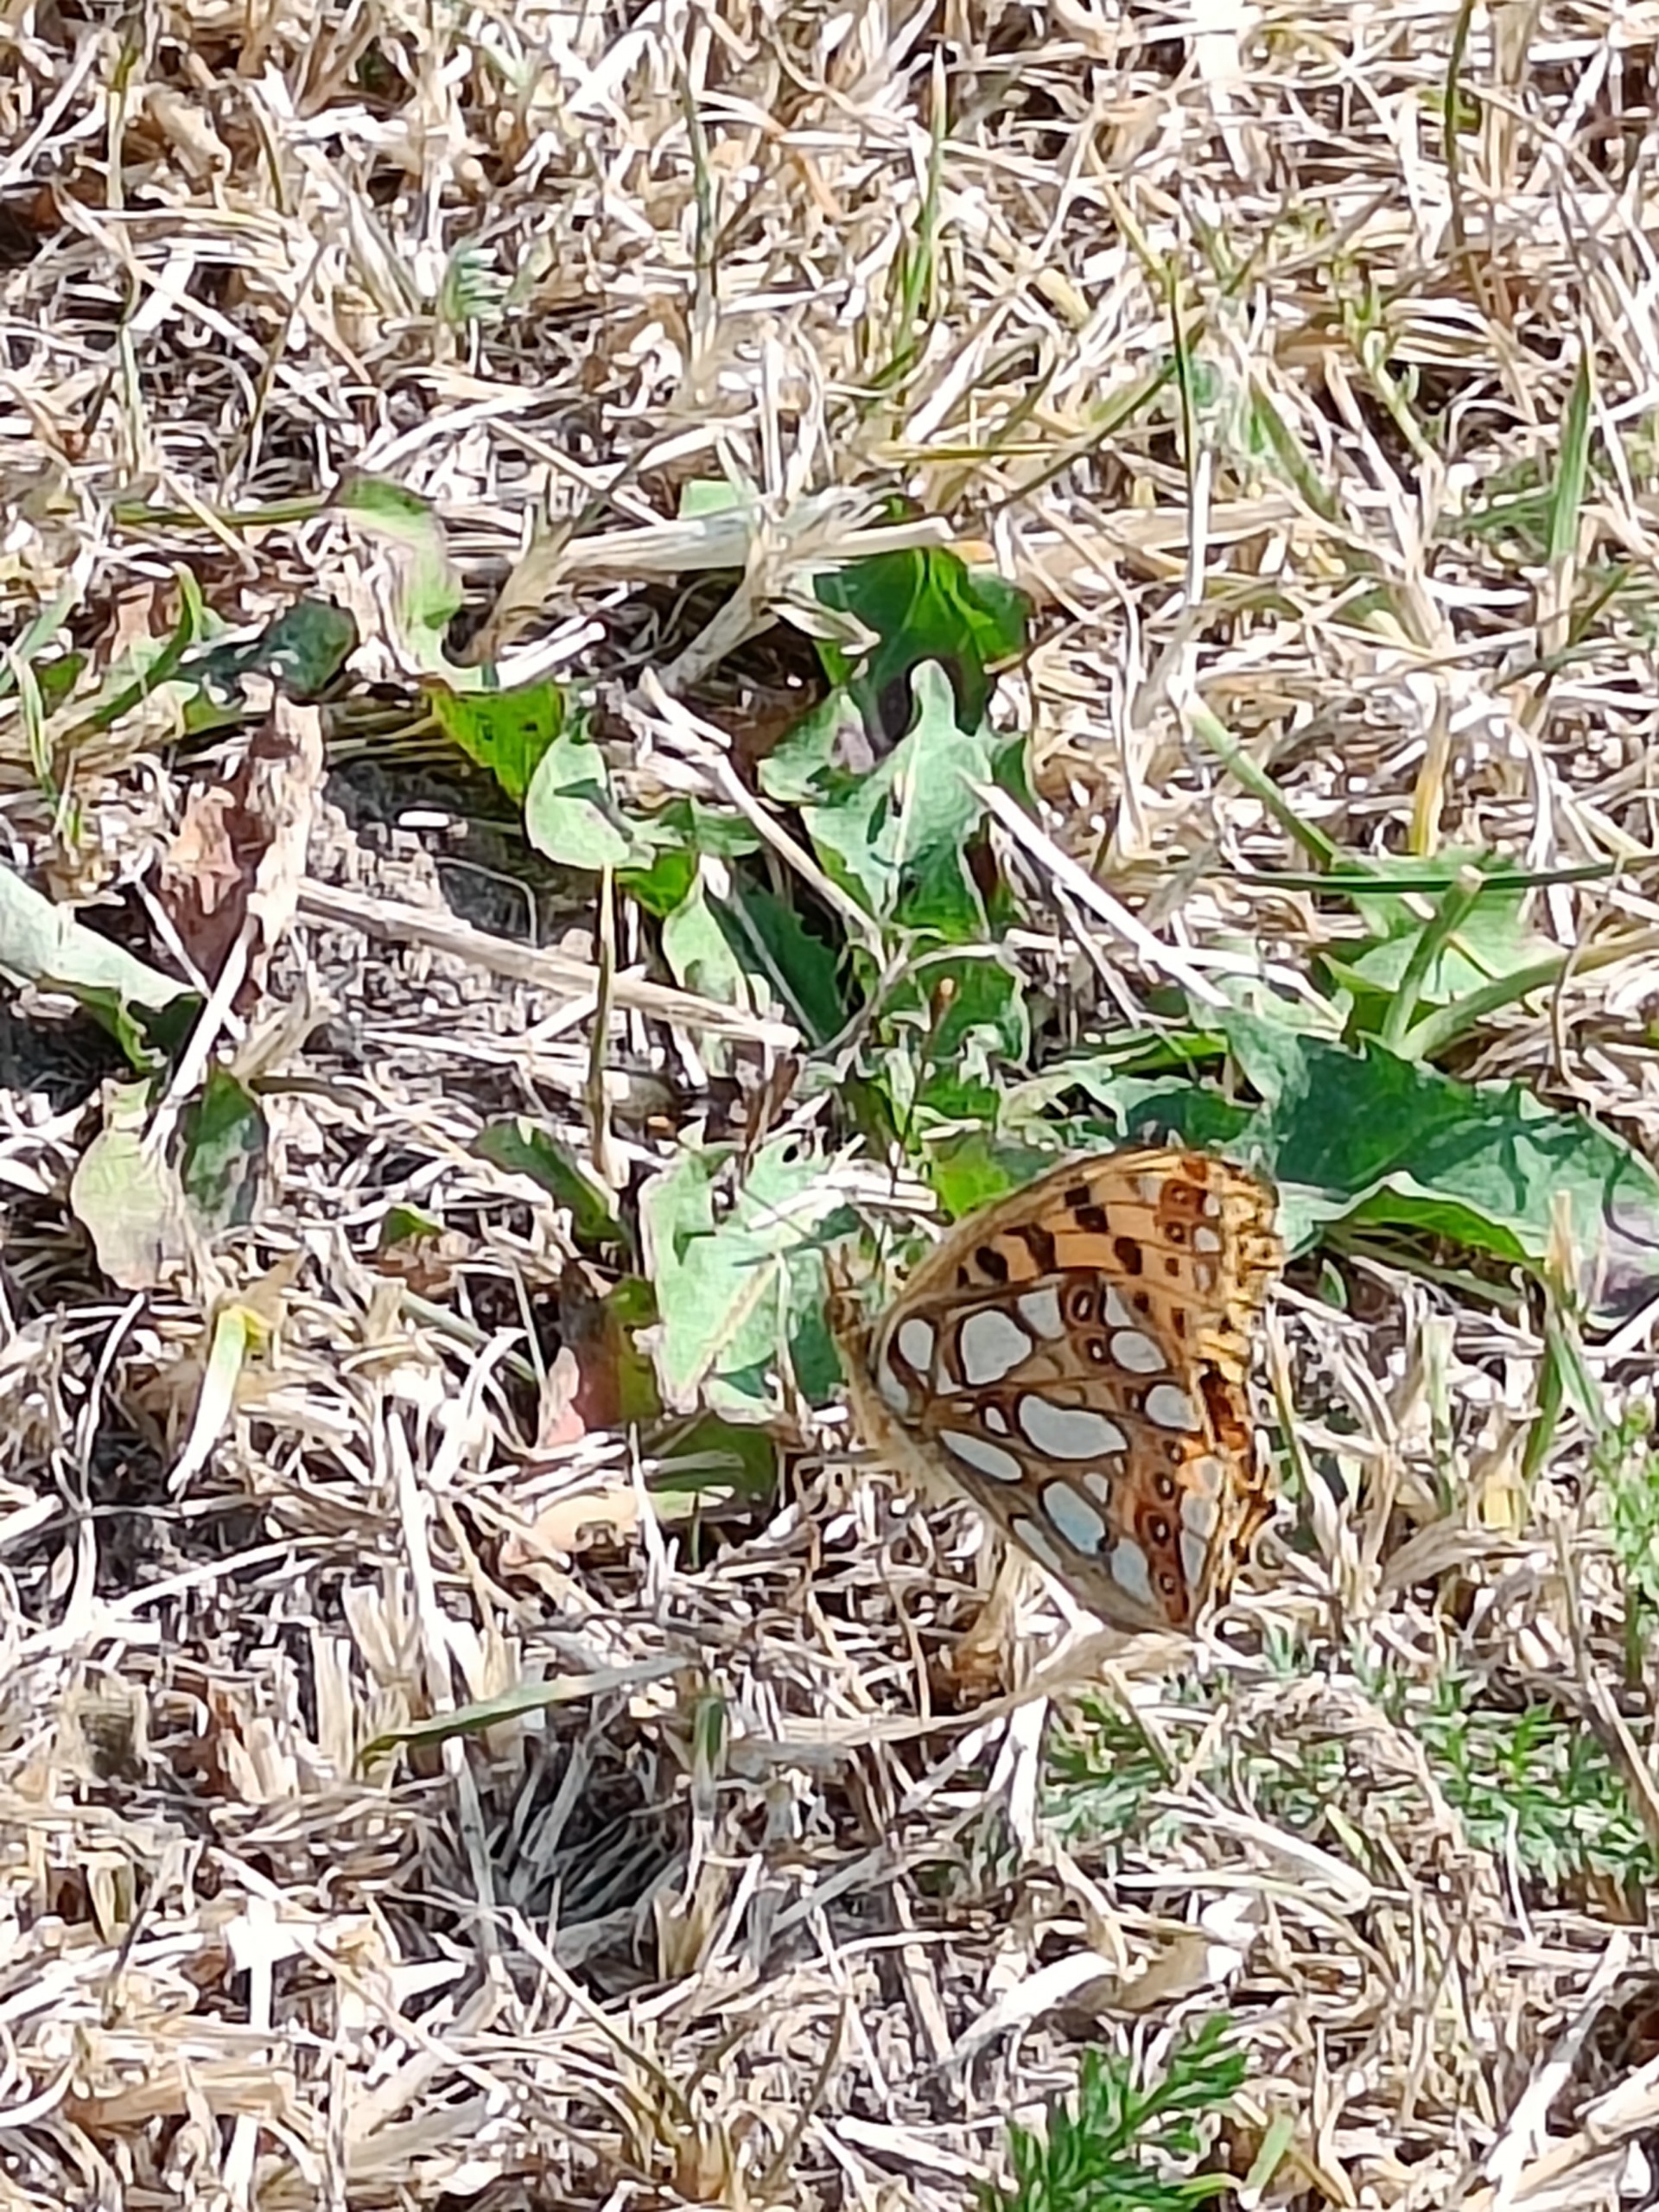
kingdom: Animalia
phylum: Arthropoda
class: Insecta
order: Lepidoptera
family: Nymphalidae
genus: Issoria
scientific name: Issoria lathonia
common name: Storplettet perlemorsommerfugl
